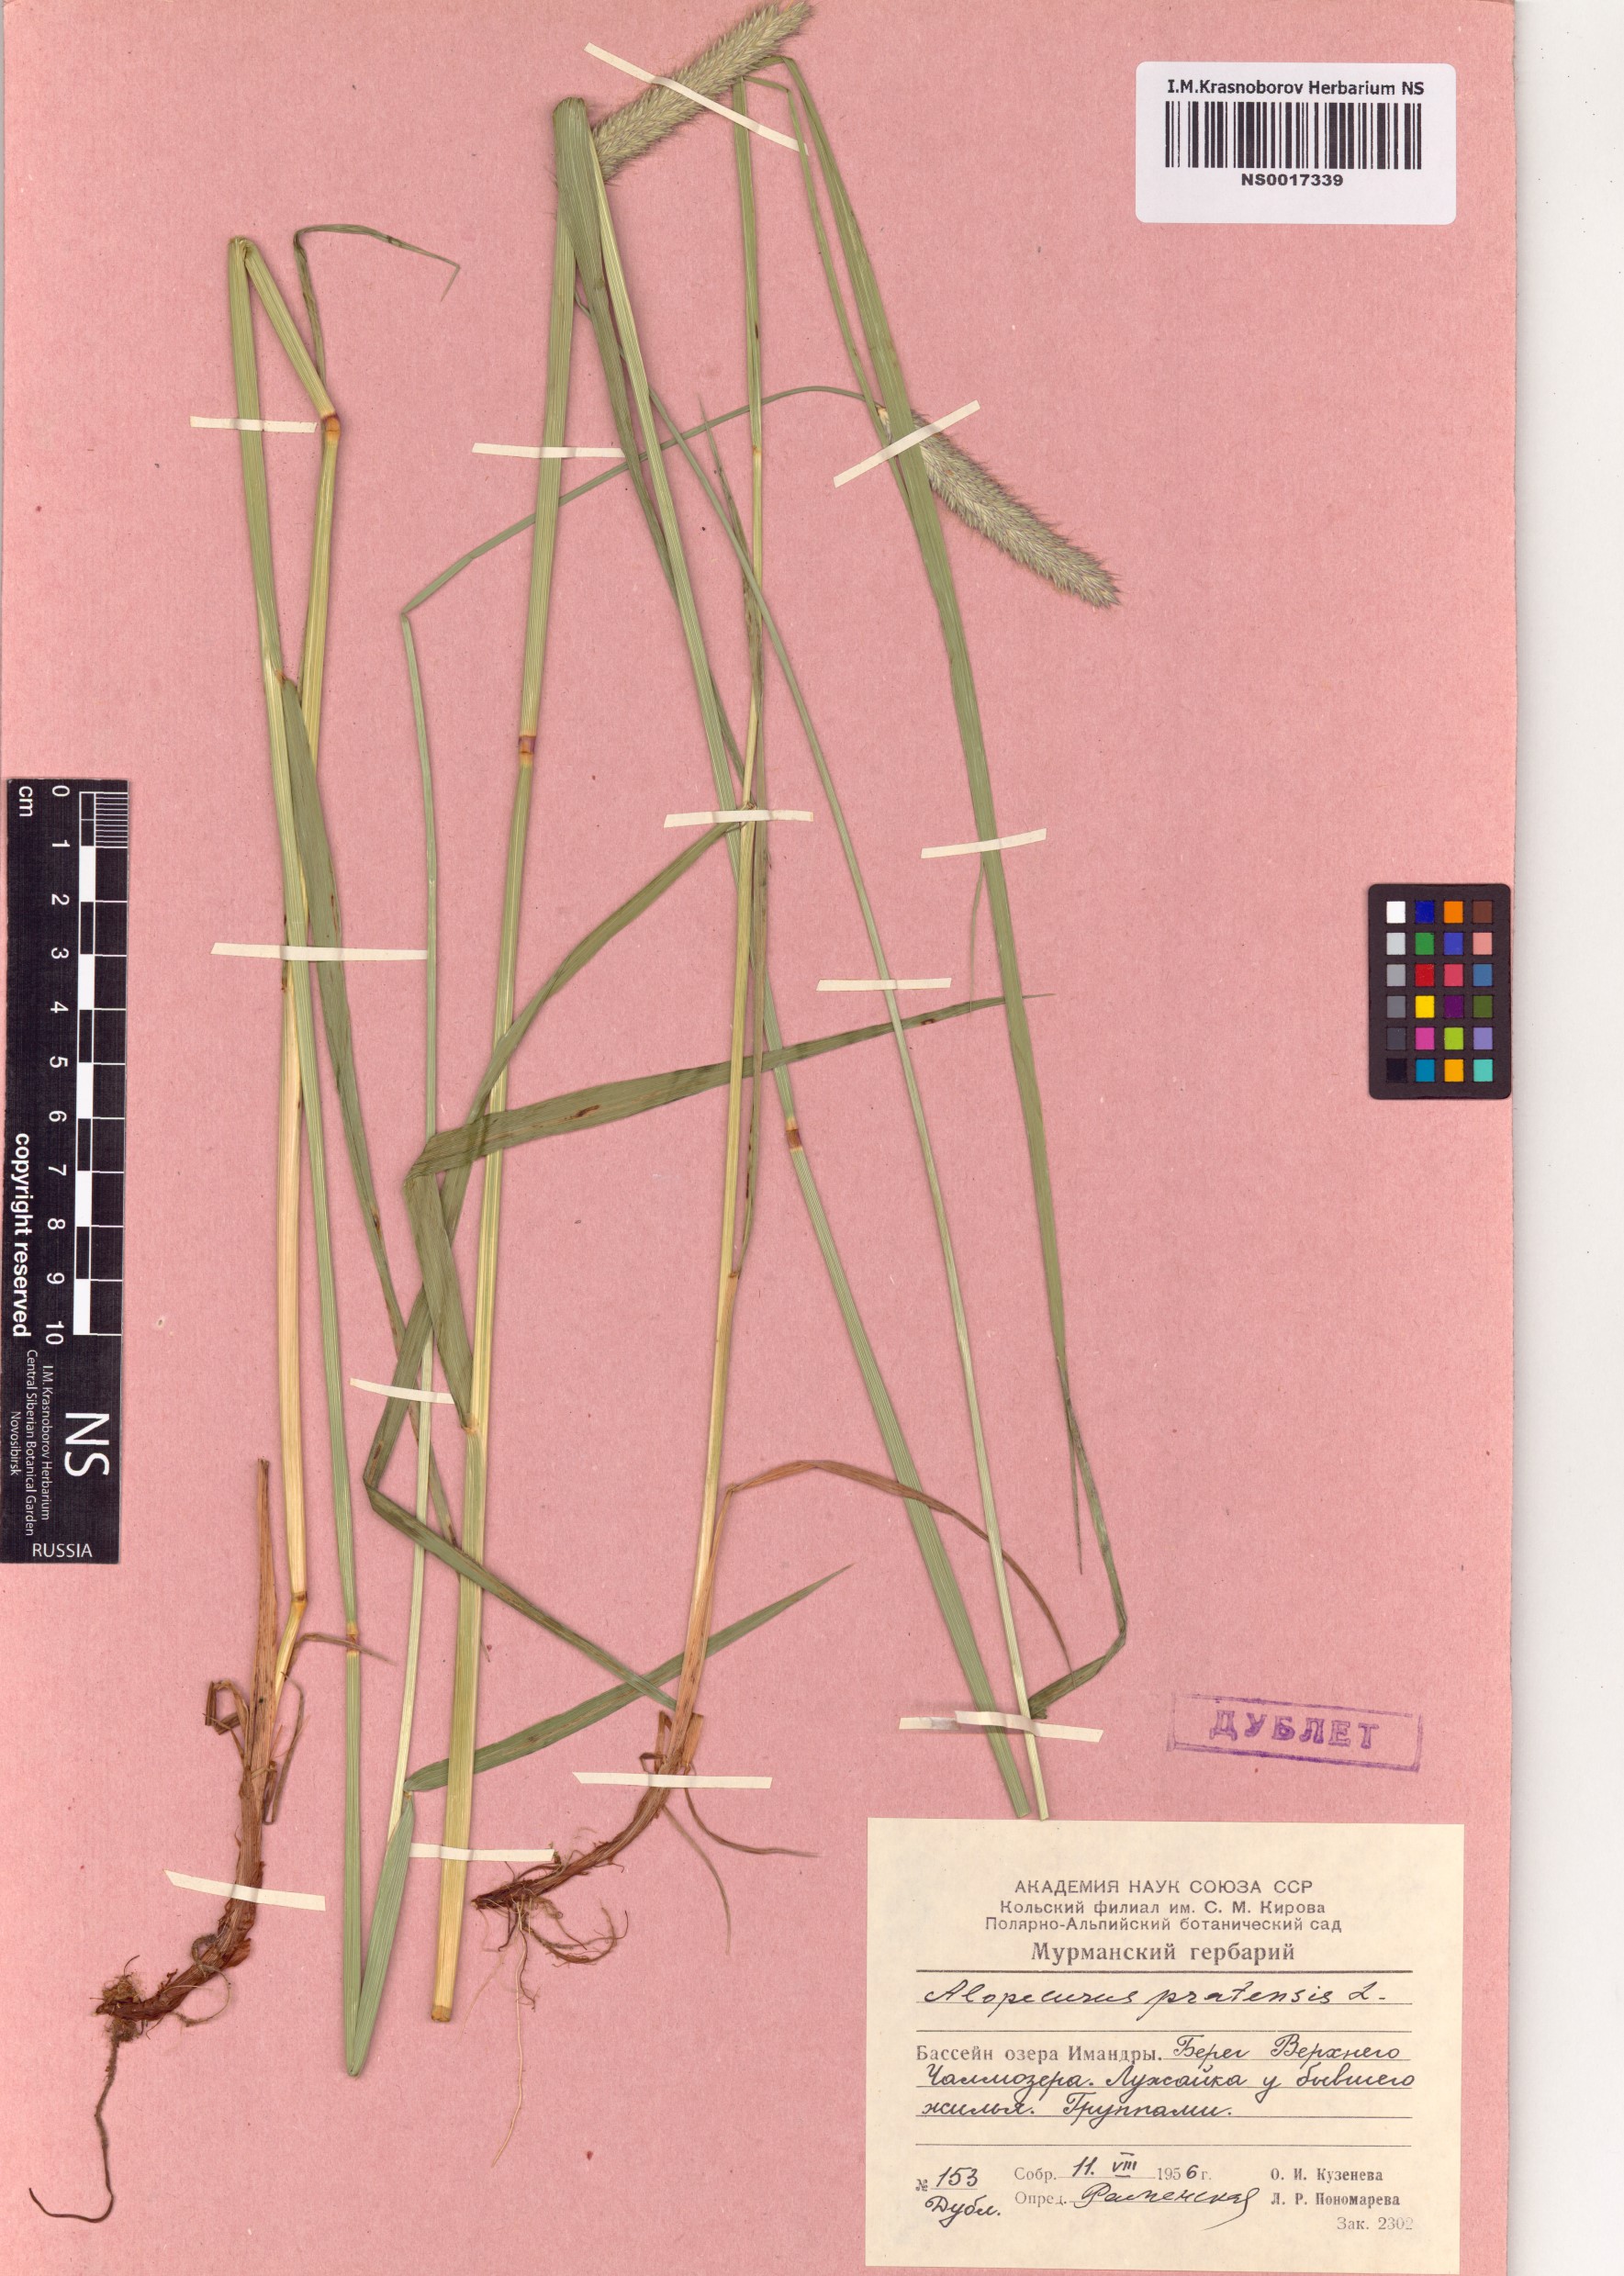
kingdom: Plantae
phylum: Tracheophyta
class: Liliopsida
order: Poales
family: Poaceae
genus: Alopecurus
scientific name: Alopecurus pratensis
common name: Meadow foxtail
